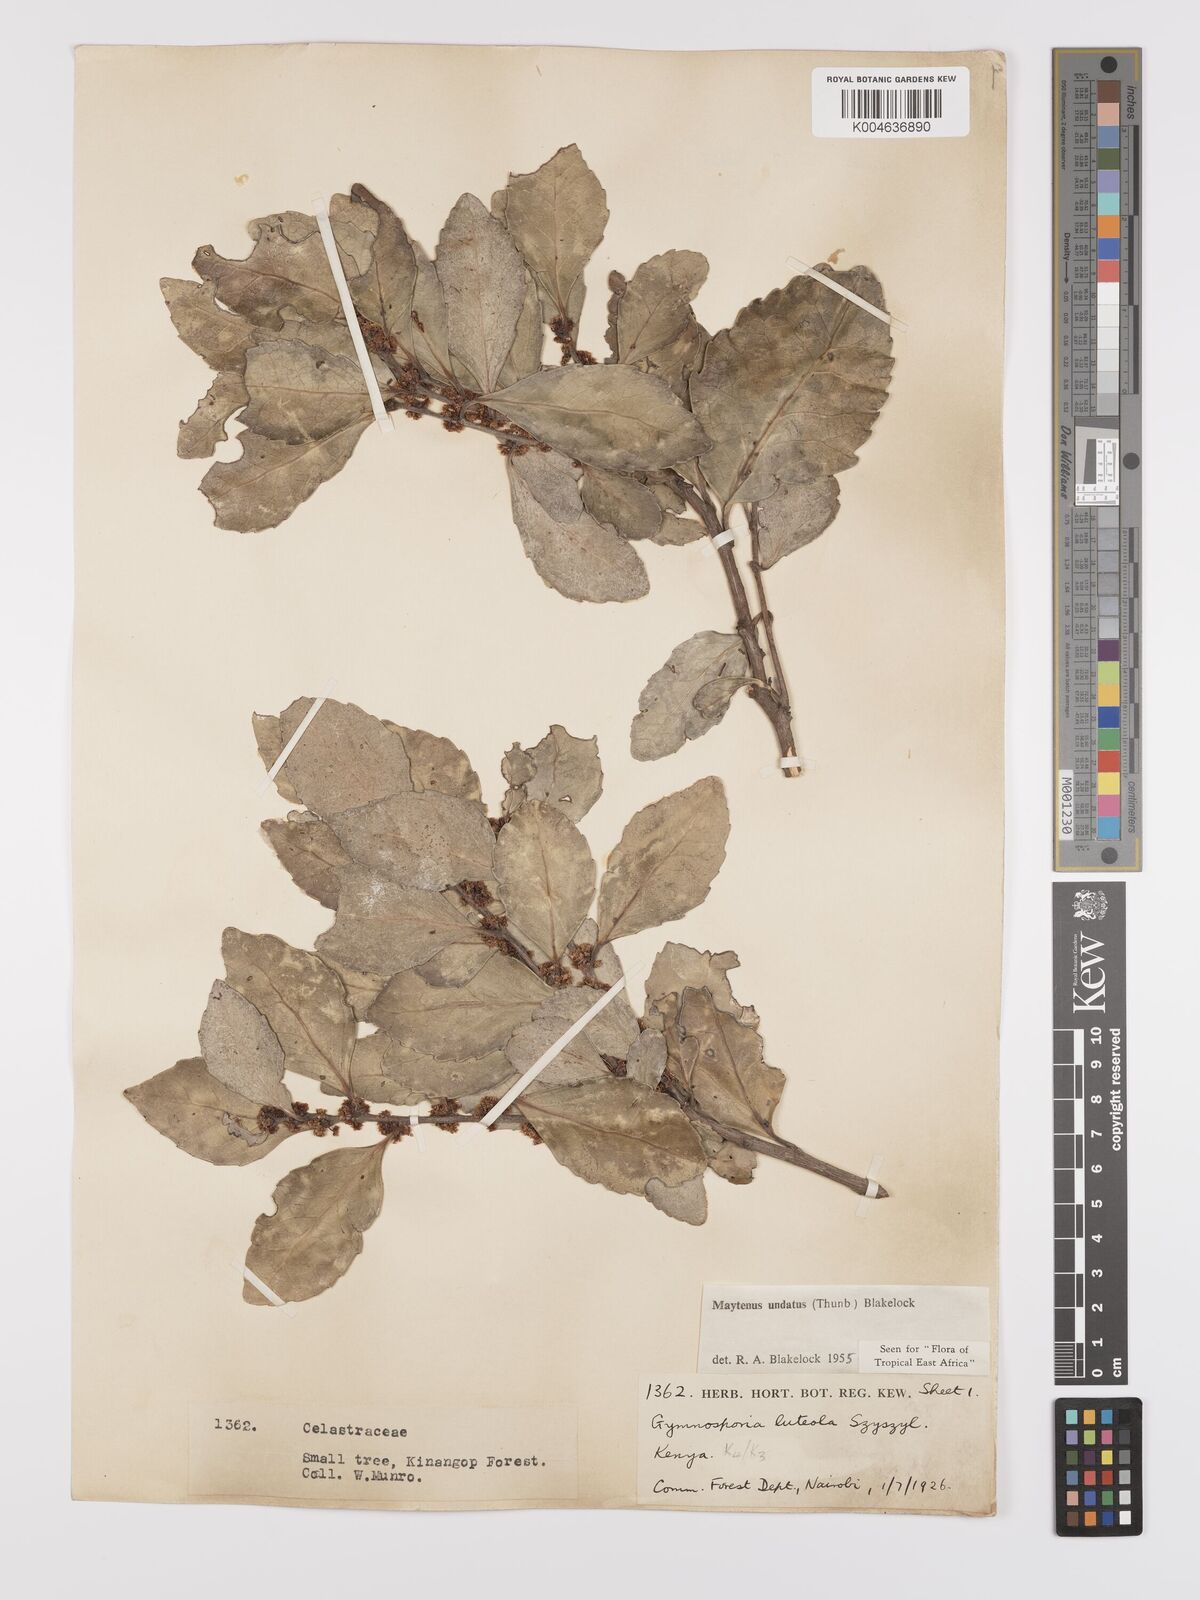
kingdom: Plantae
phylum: Tracheophyta
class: Magnoliopsida
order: Celastrales
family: Celastraceae
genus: Gymnosporia
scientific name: Gymnosporia undata
